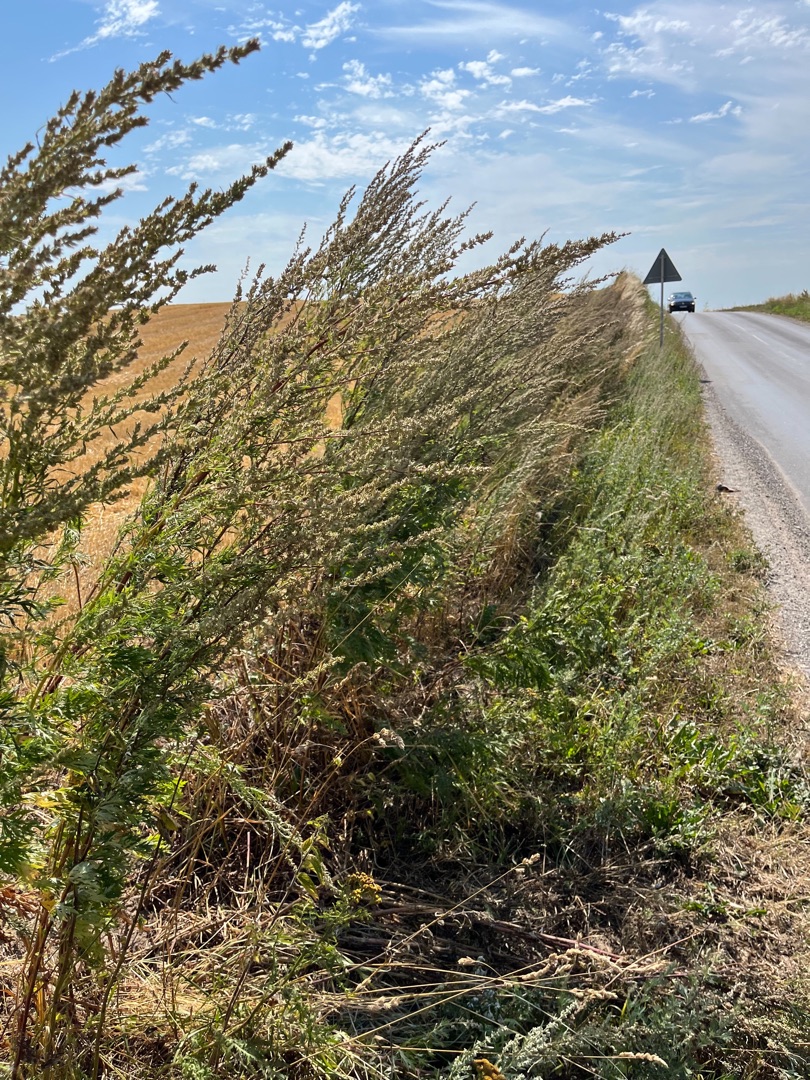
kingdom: Plantae
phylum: Tracheophyta
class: Magnoliopsida
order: Asterales
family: Asteraceae
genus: Artemisia
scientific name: Artemisia vulgaris
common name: Grå-bynke
